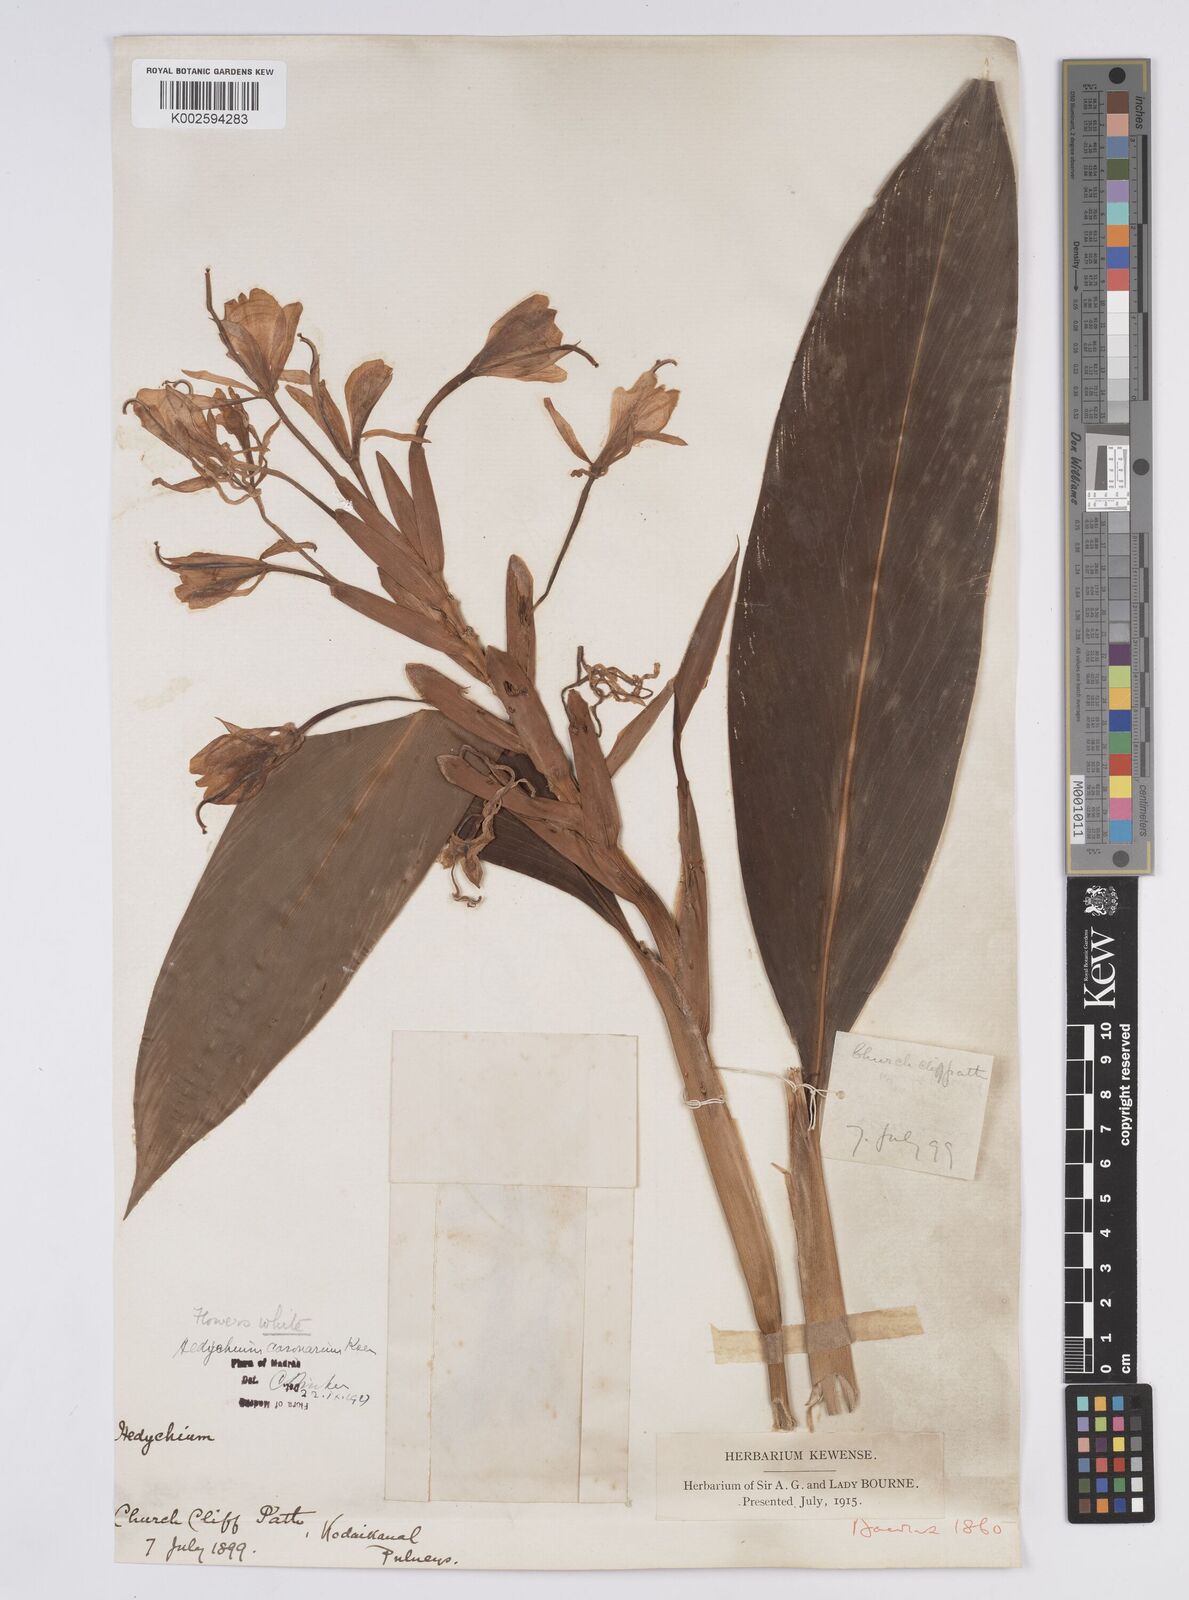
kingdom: Plantae
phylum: Tracheophyta
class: Liliopsida
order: Zingiberales
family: Zingiberaceae
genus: Hedychium
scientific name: Hedychium coronarium
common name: White garland-lily
